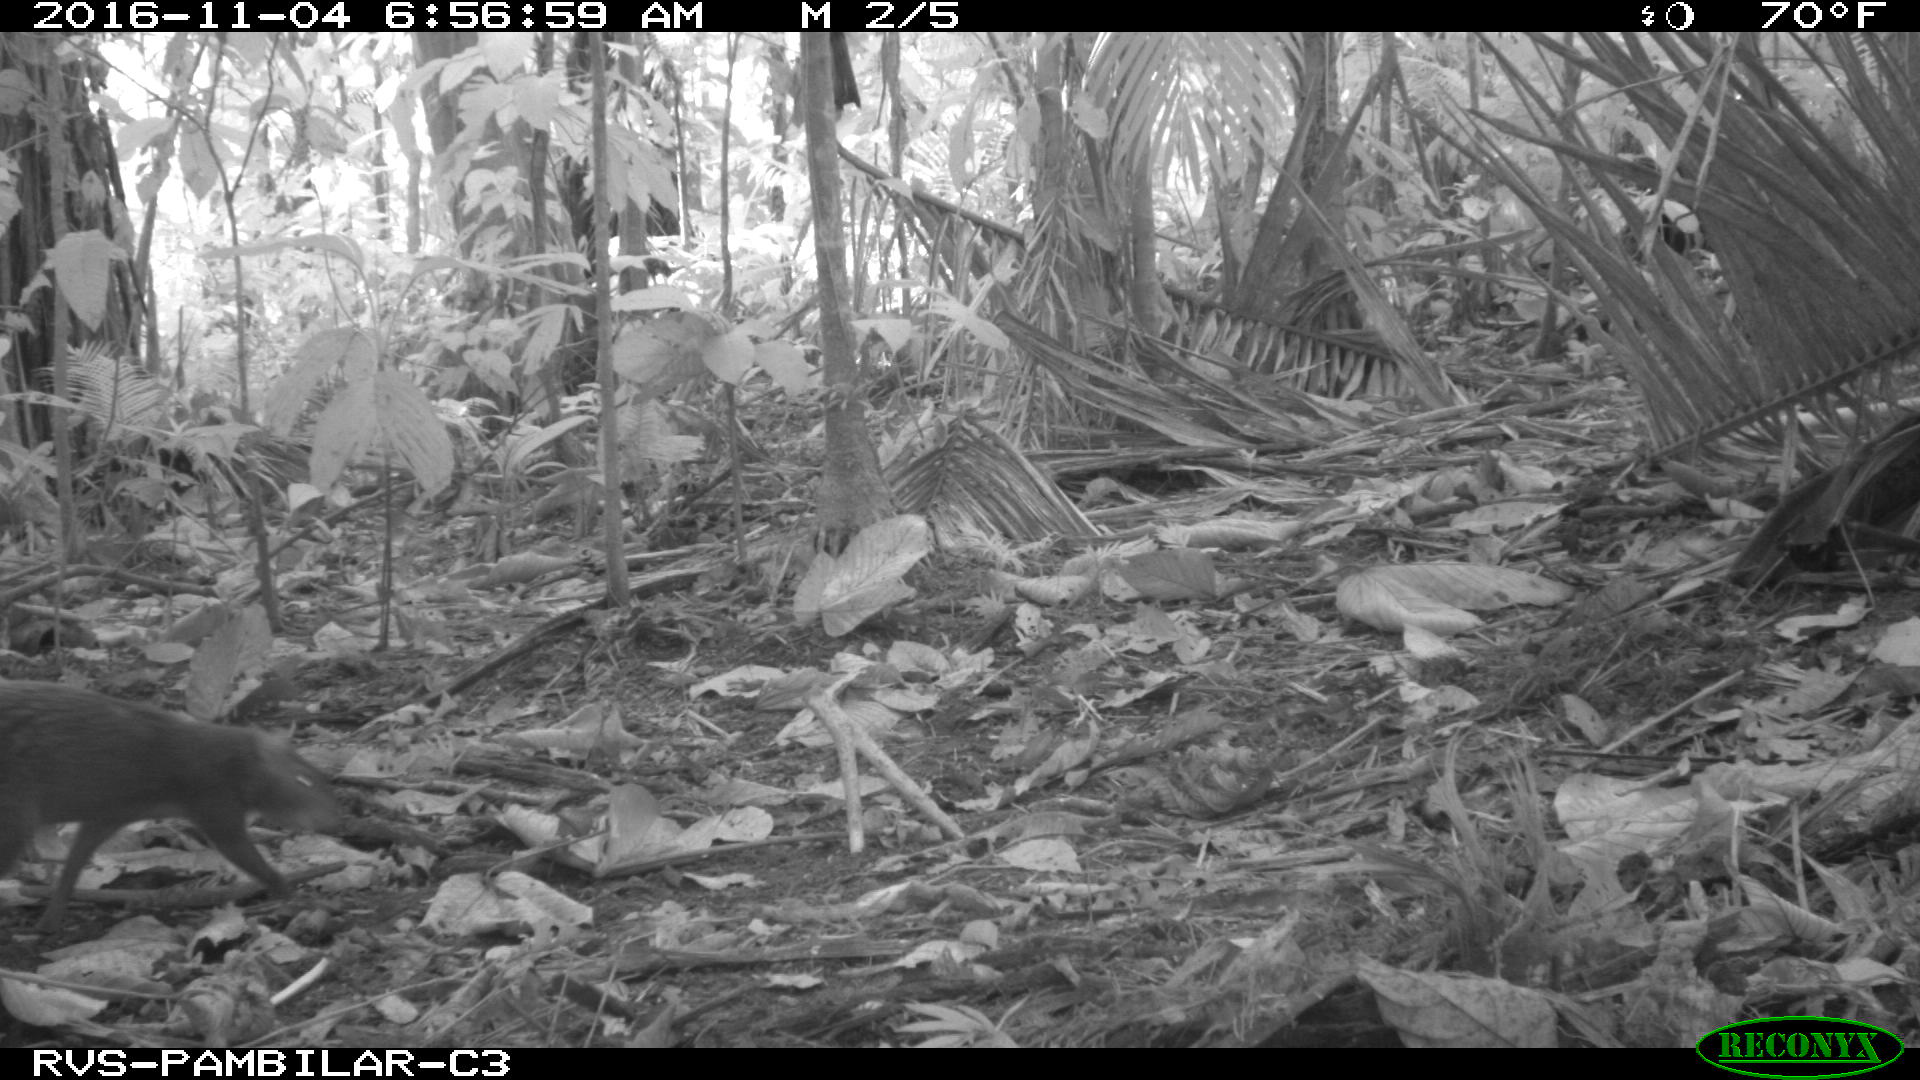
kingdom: Animalia
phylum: Chordata
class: Mammalia
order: Rodentia
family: Dasyproctidae
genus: Dasyprocta
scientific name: Dasyprocta punctata
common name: Central american agouti
